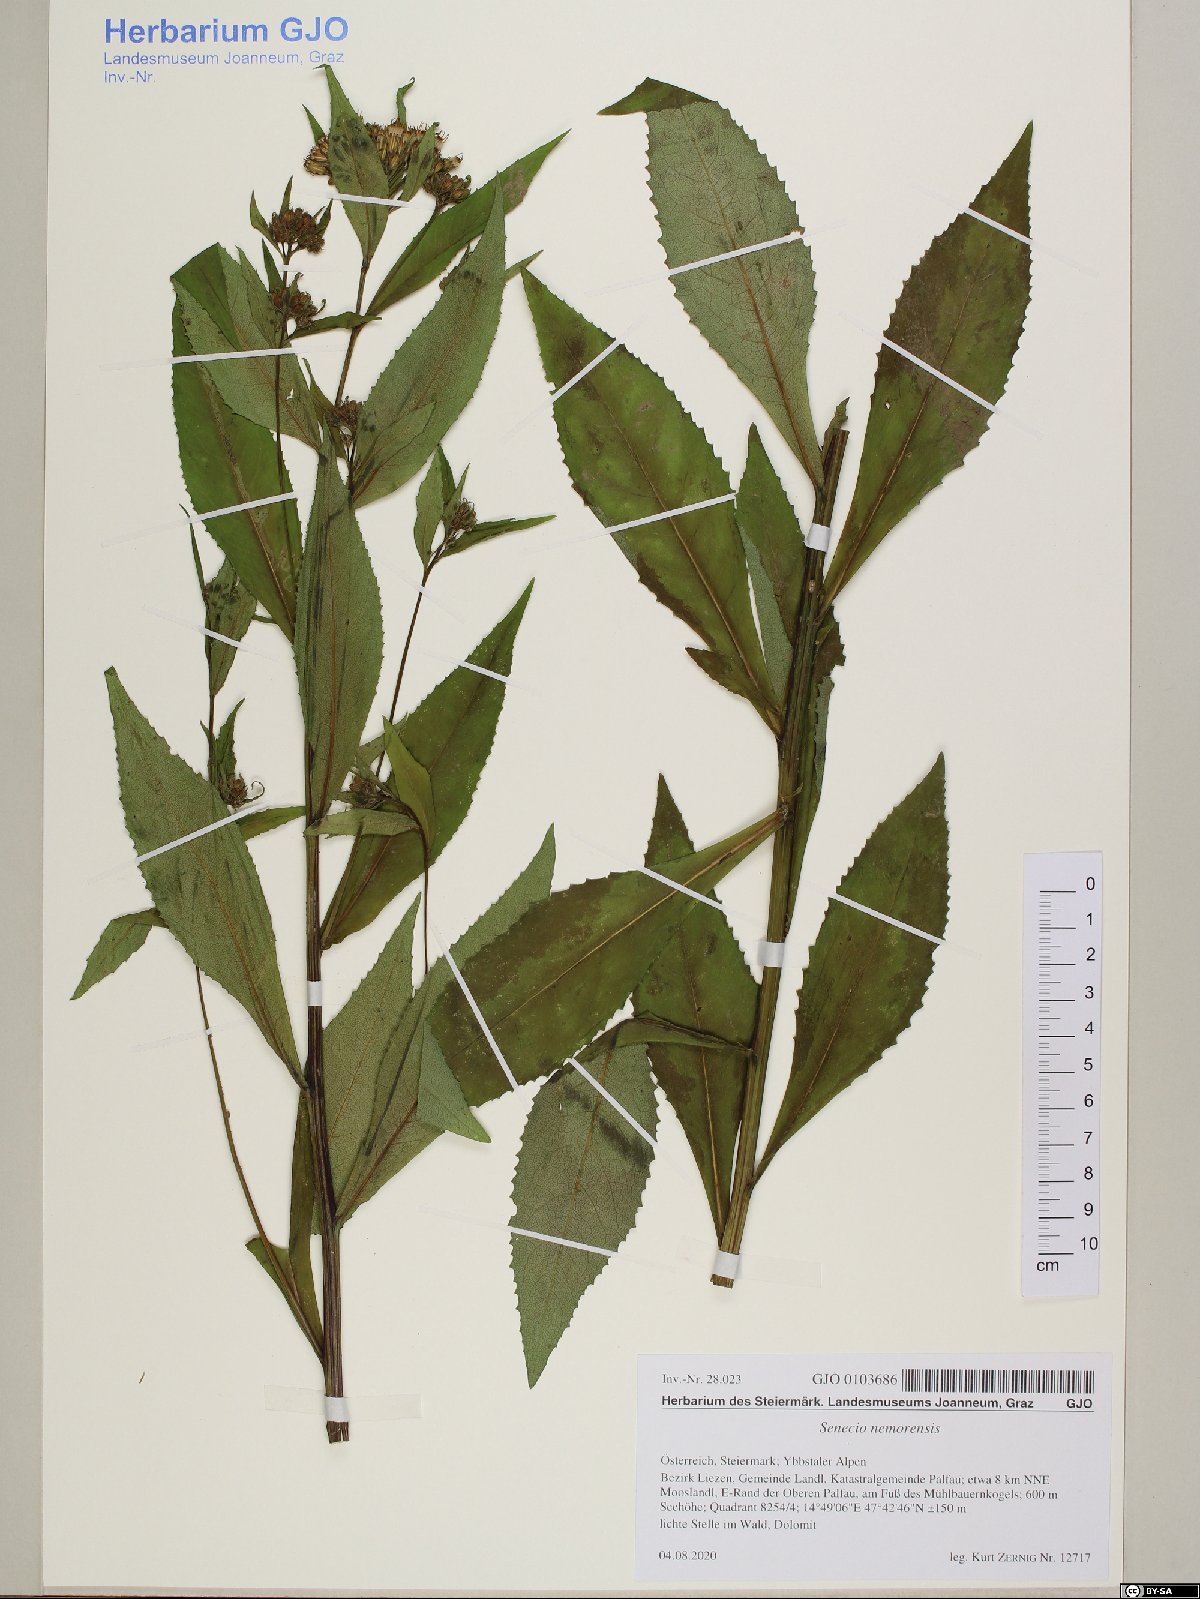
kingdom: Plantae
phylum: Tracheophyta
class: Magnoliopsida
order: Asterales
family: Asteraceae
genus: Senecio
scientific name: Senecio nemorensis
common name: Alpine ragwort
